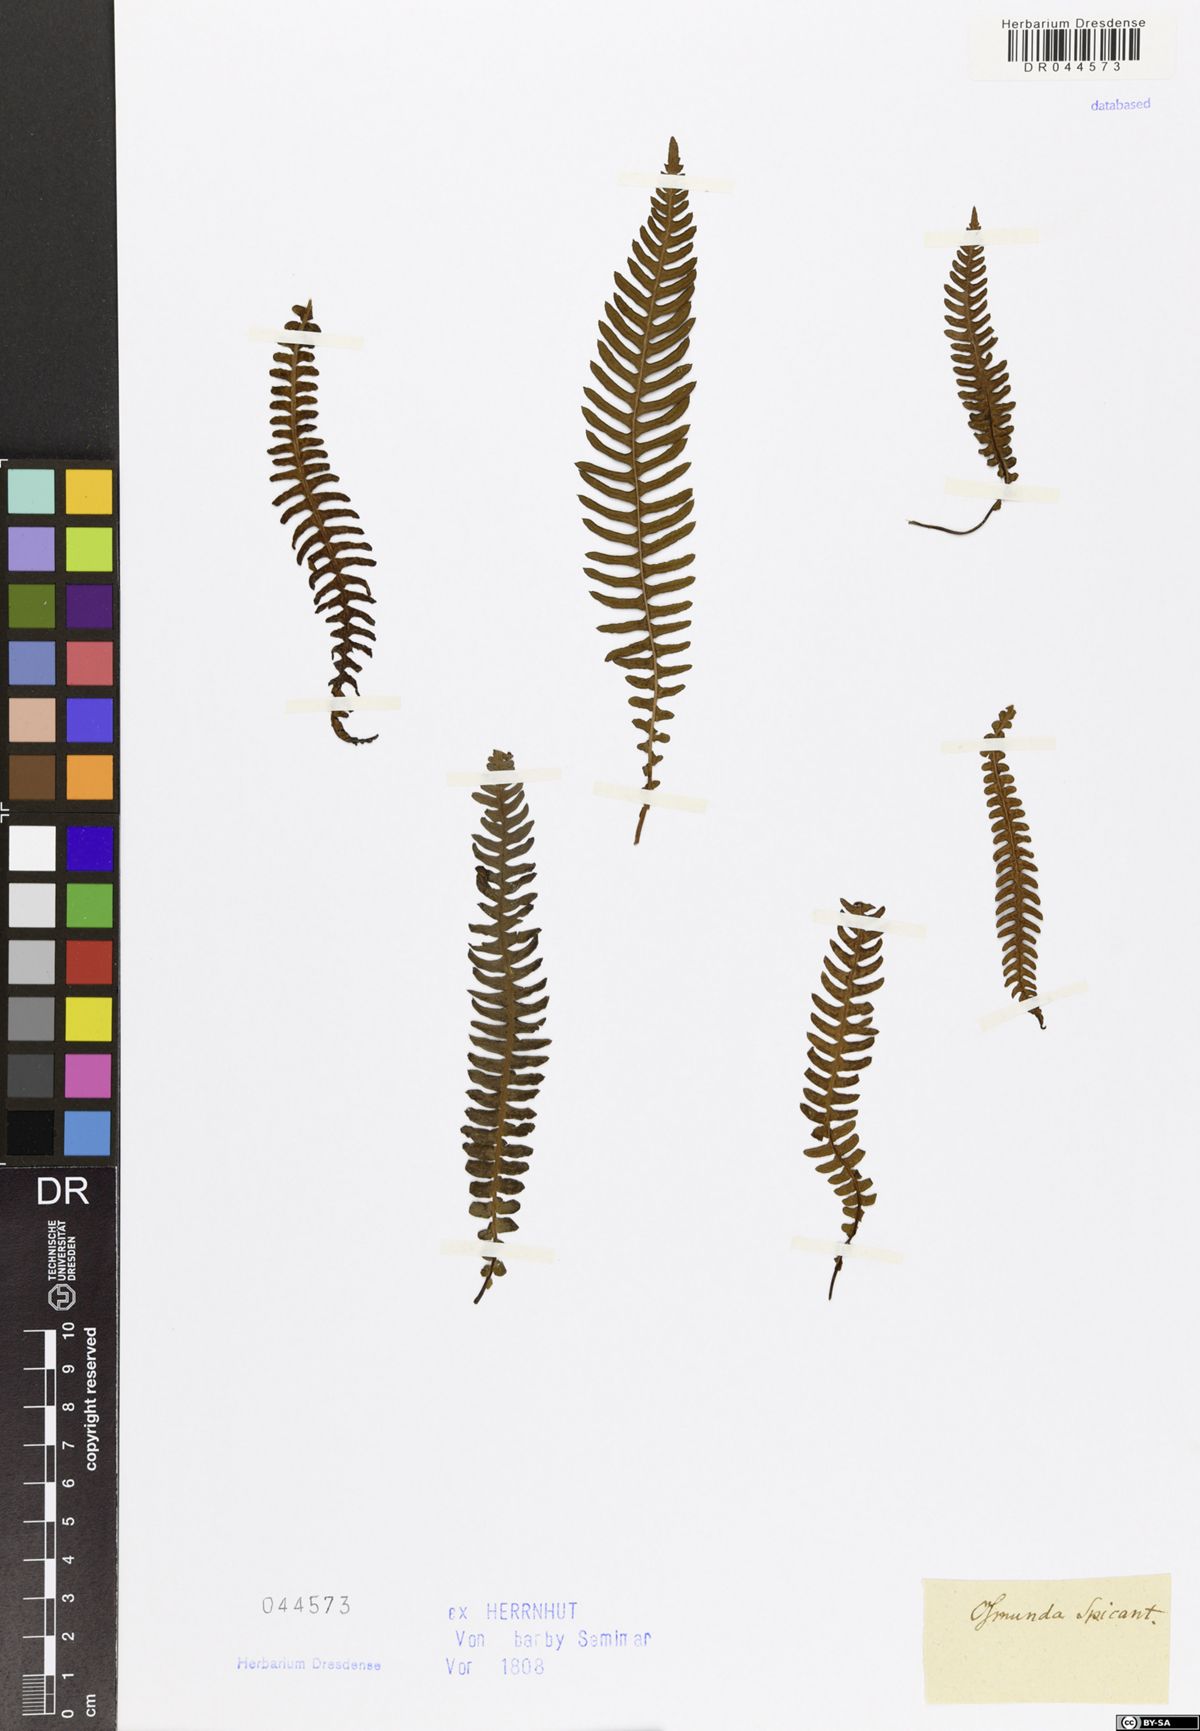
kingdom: Plantae
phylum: Tracheophyta
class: Polypodiopsida
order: Polypodiales
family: Blechnaceae
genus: Struthiopteris
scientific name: Struthiopteris spicant
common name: Deer fern
